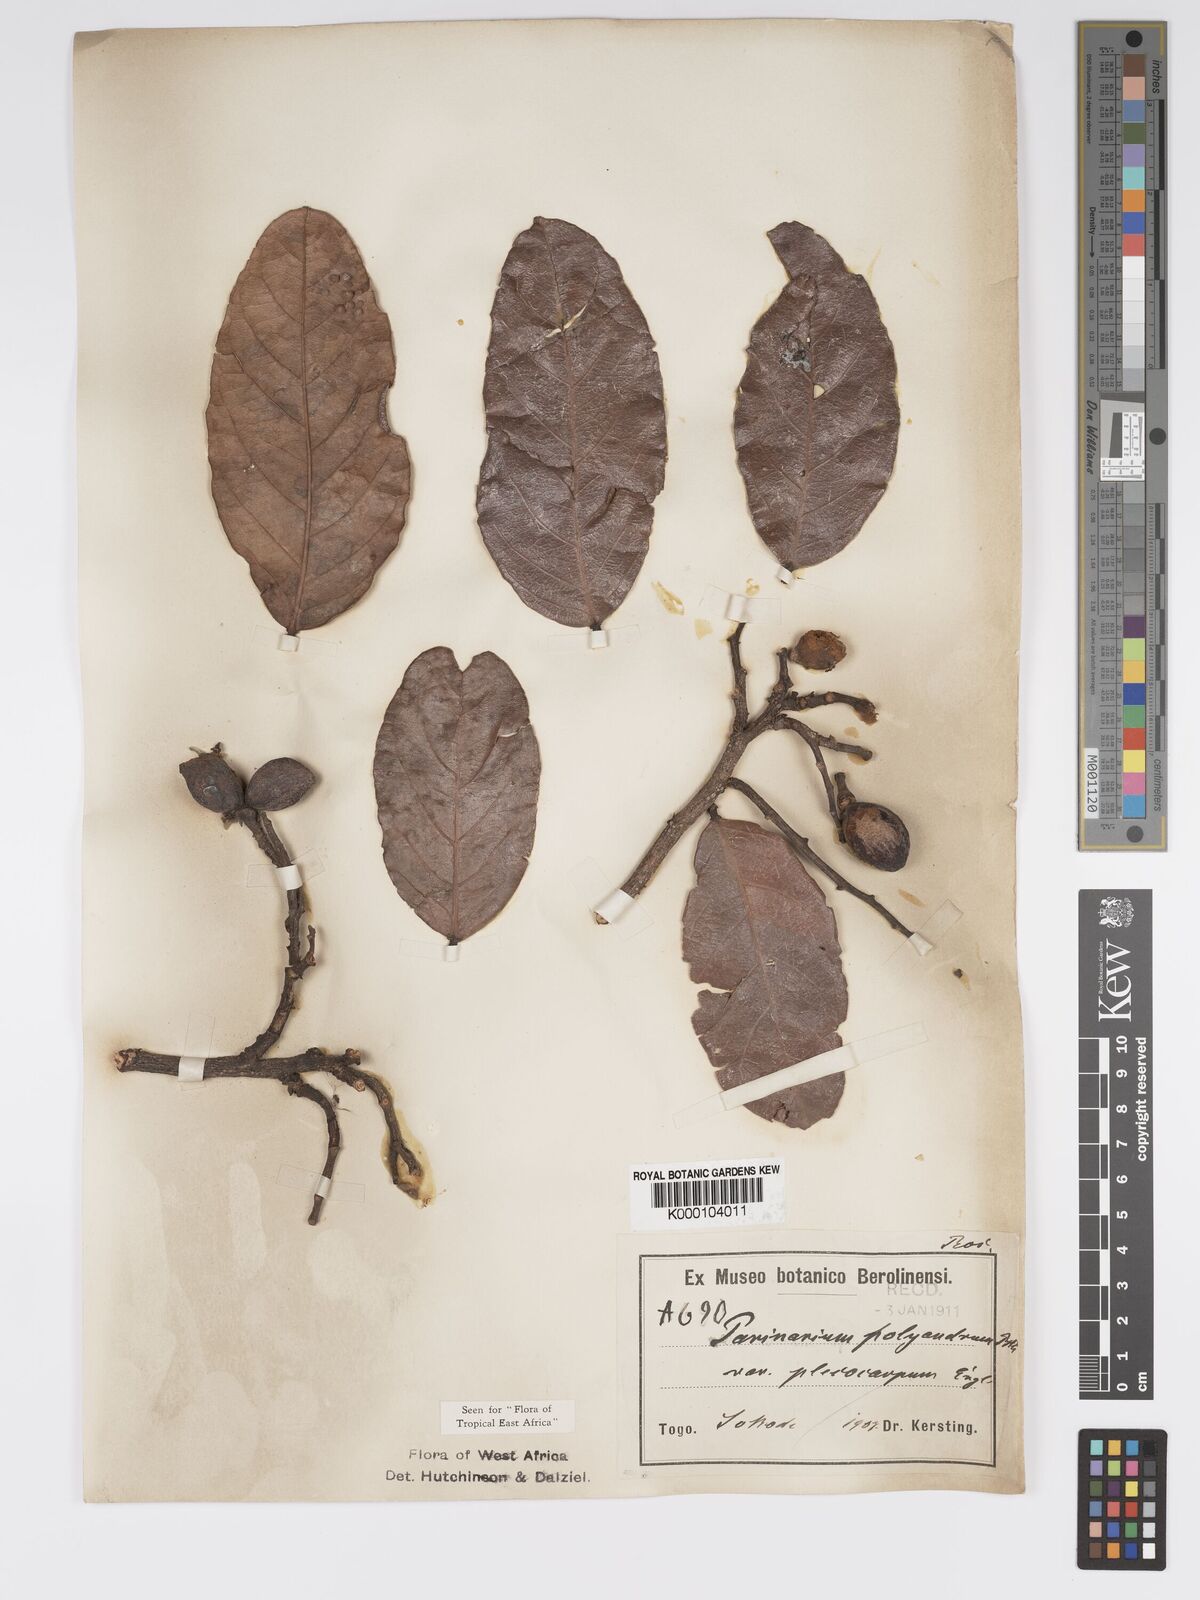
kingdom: Plantae
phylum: Tracheophyta
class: Magnoliopsida
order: Malpighiales
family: Chrysobalanaceae
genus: Maranthes
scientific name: Maranthes polyandra
